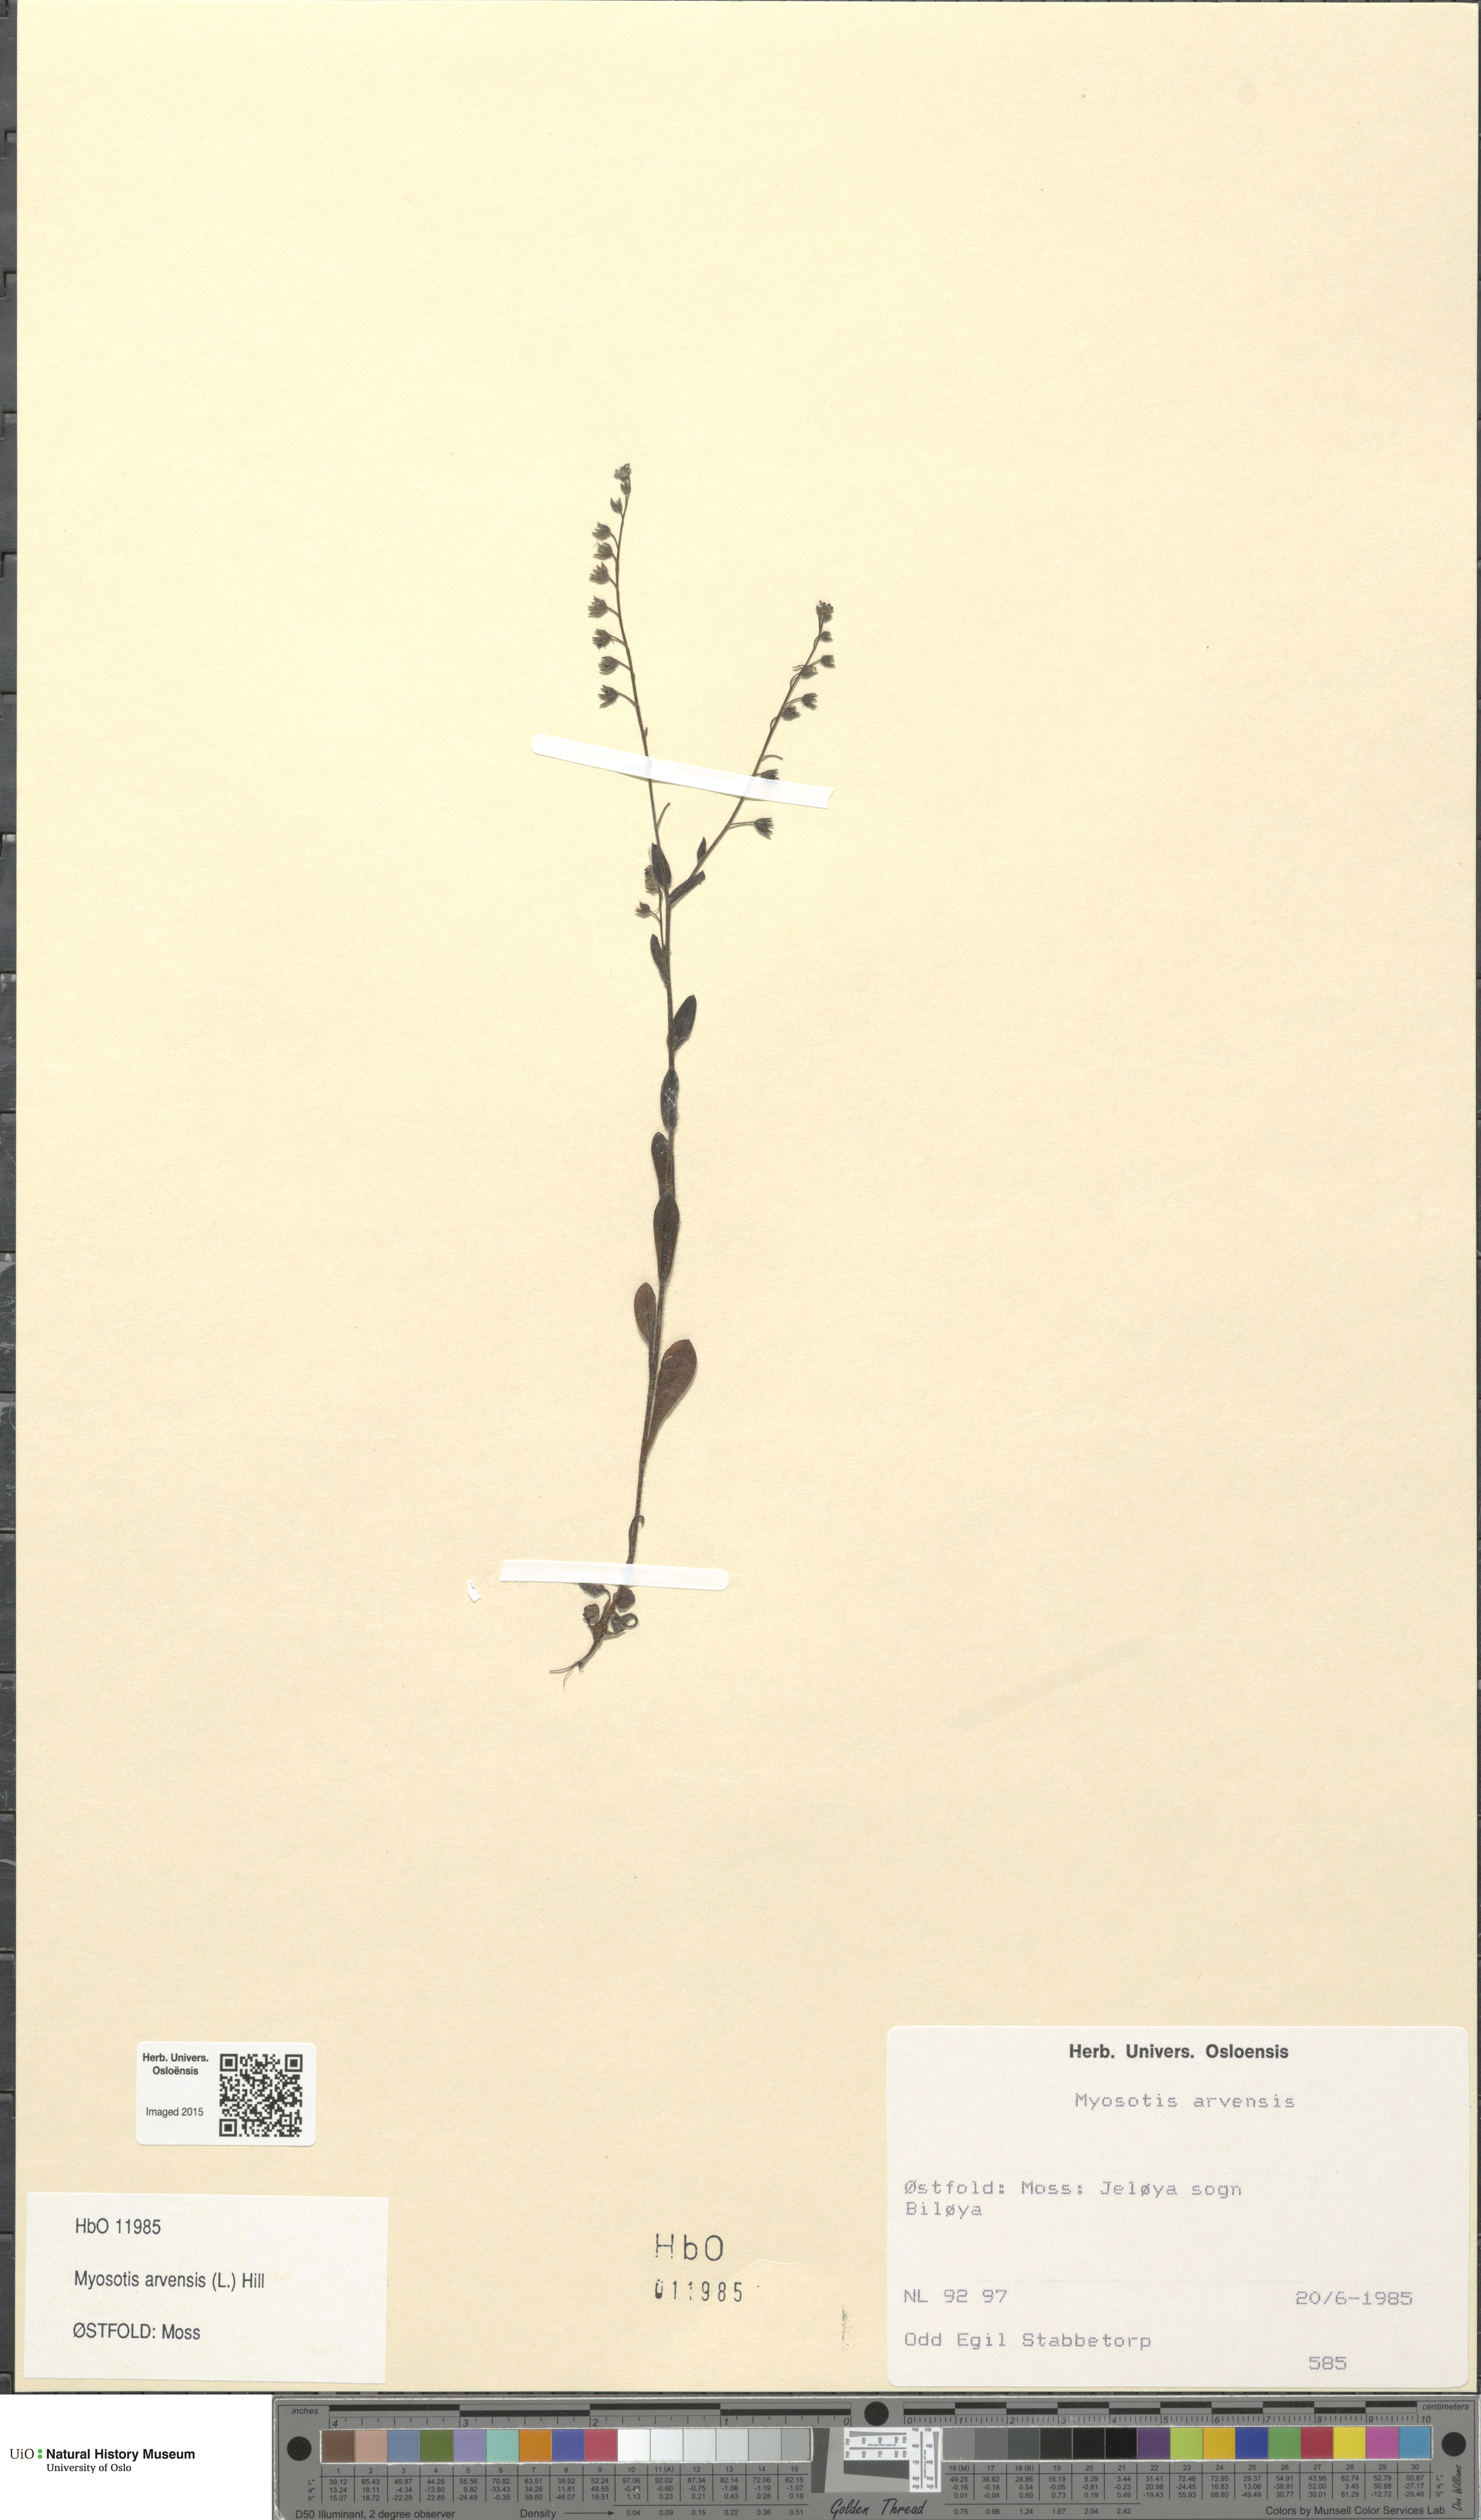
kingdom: Plantae
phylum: Tracheophyta
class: Magnoliopsida
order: Boraginales
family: Boraginaceae
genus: Myosotis
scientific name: Myosotis arvensis
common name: Field forget-me-not
